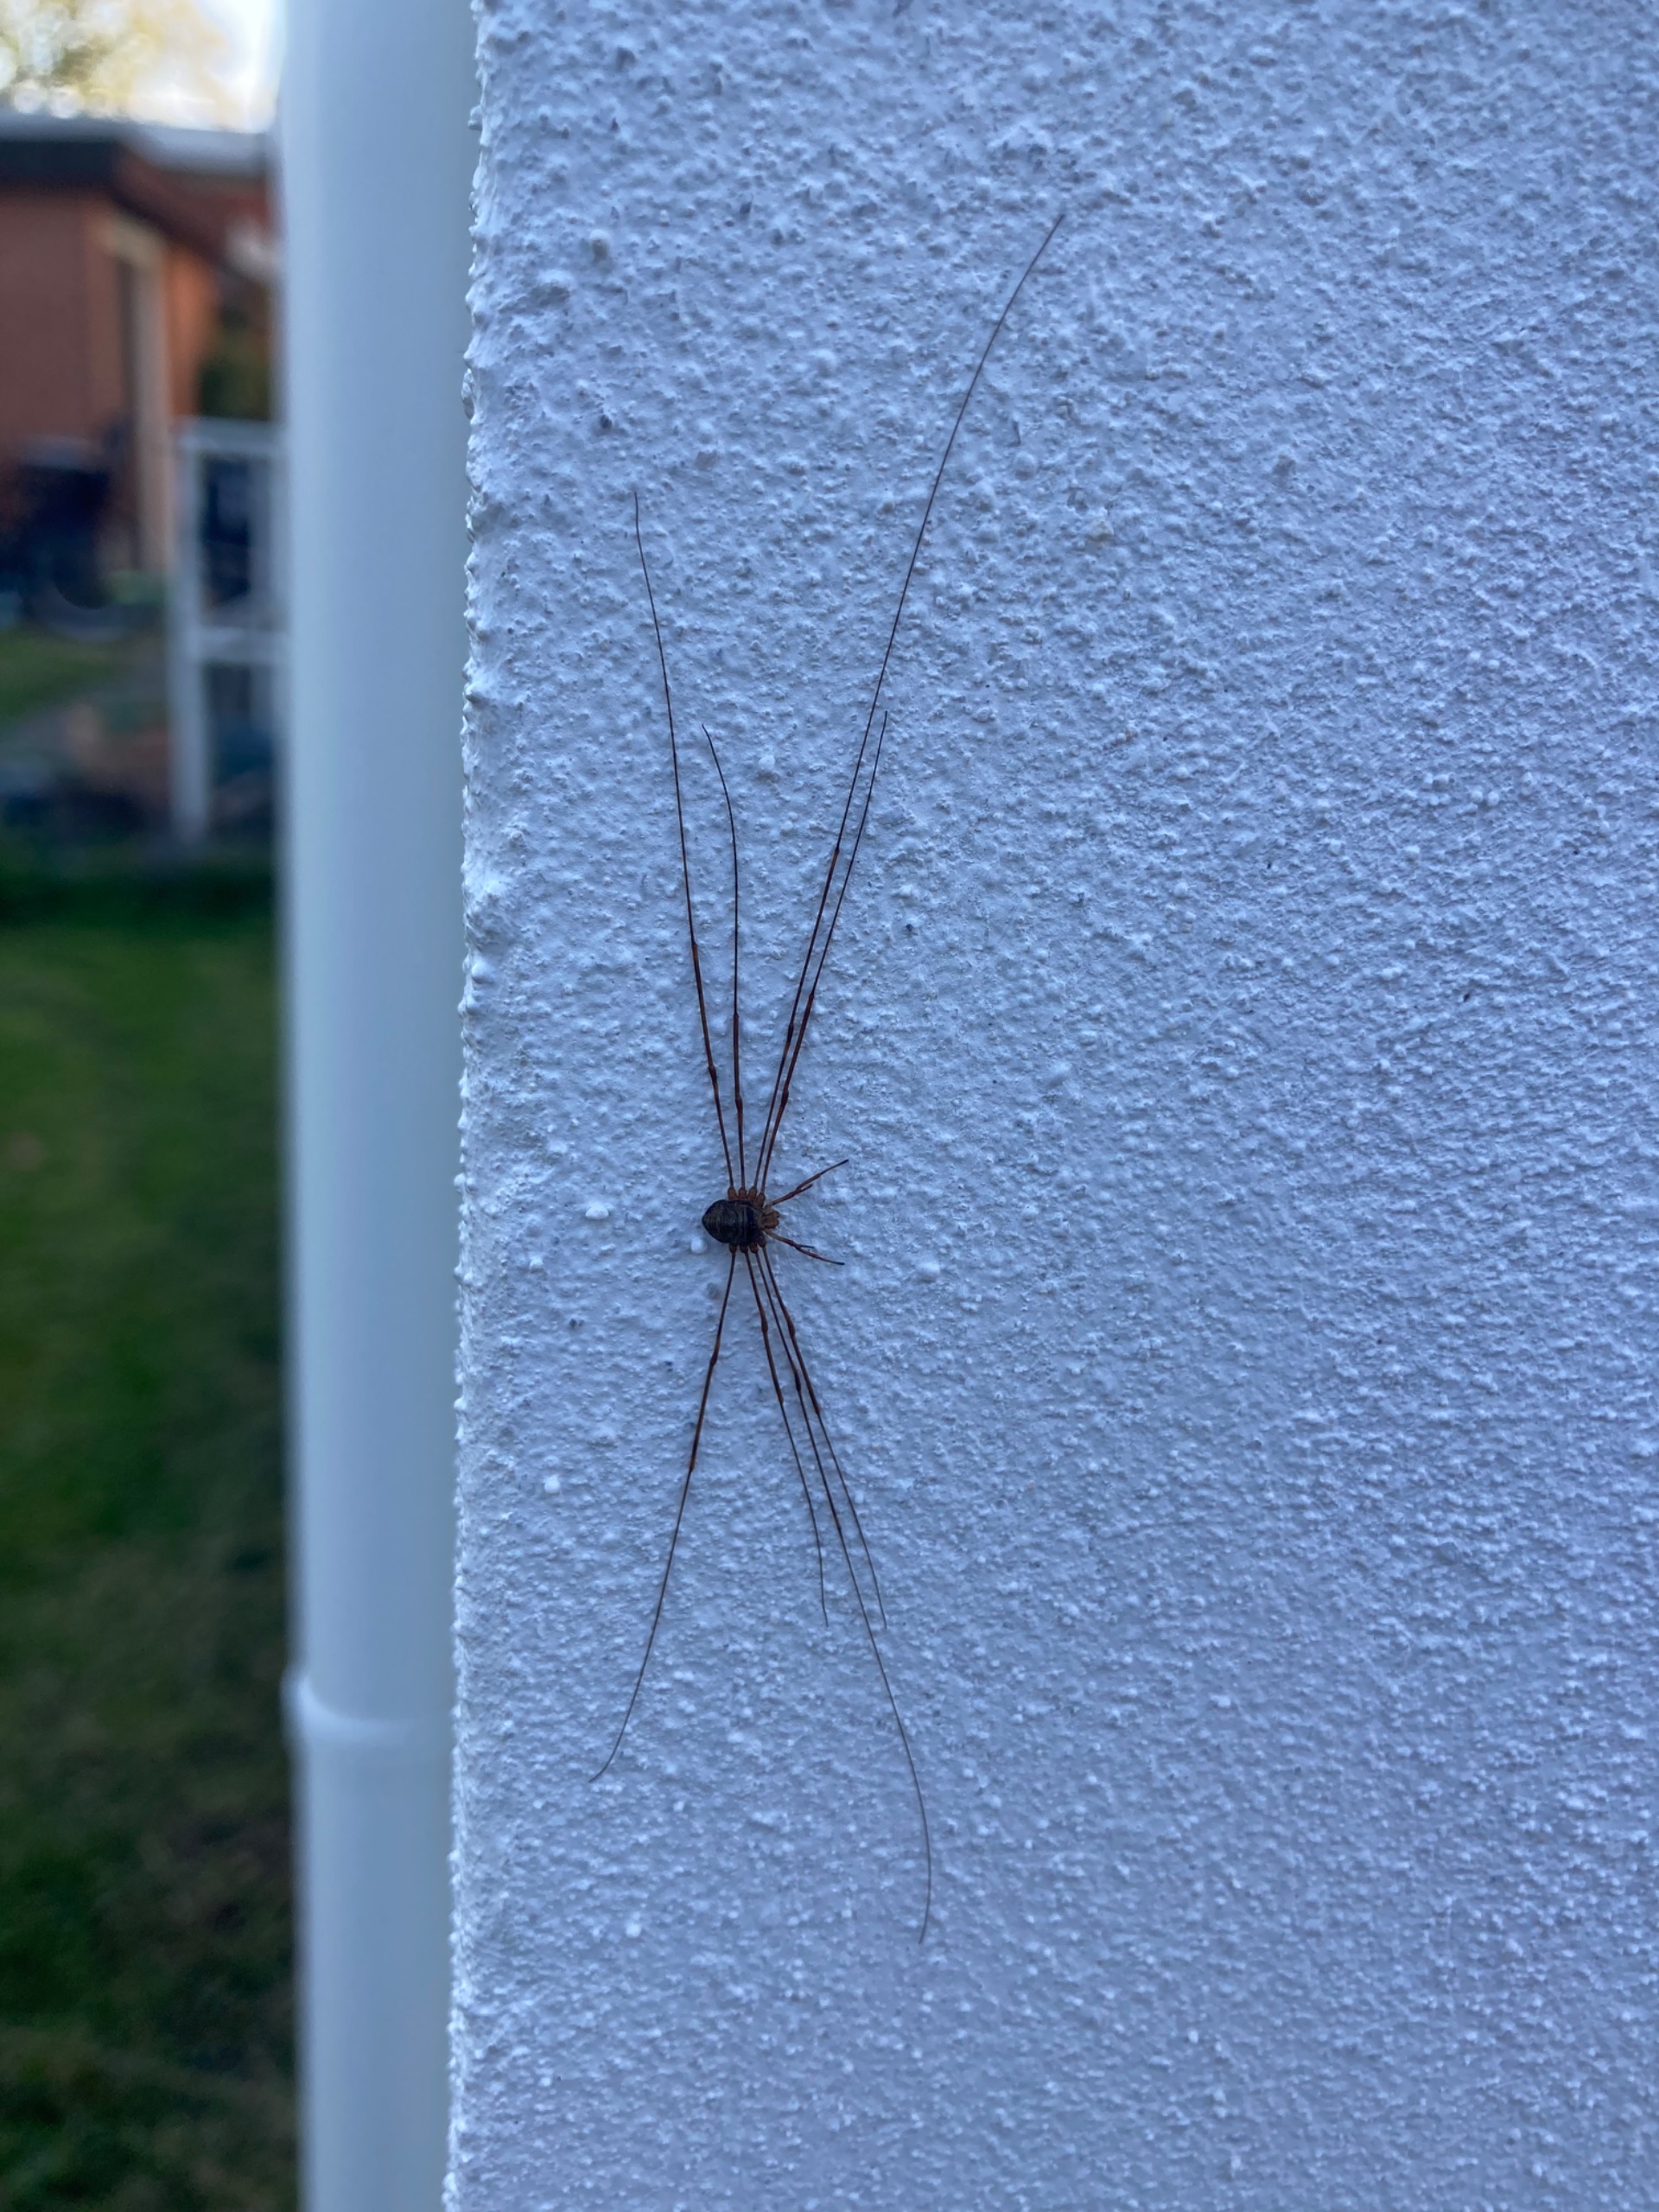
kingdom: Animalia
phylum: Arthropoda
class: Arachnida
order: Opiliones
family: Phalangiidae
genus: Dicranopalpus
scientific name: Dicranopalpus ramosus
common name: Gaffelmejer
